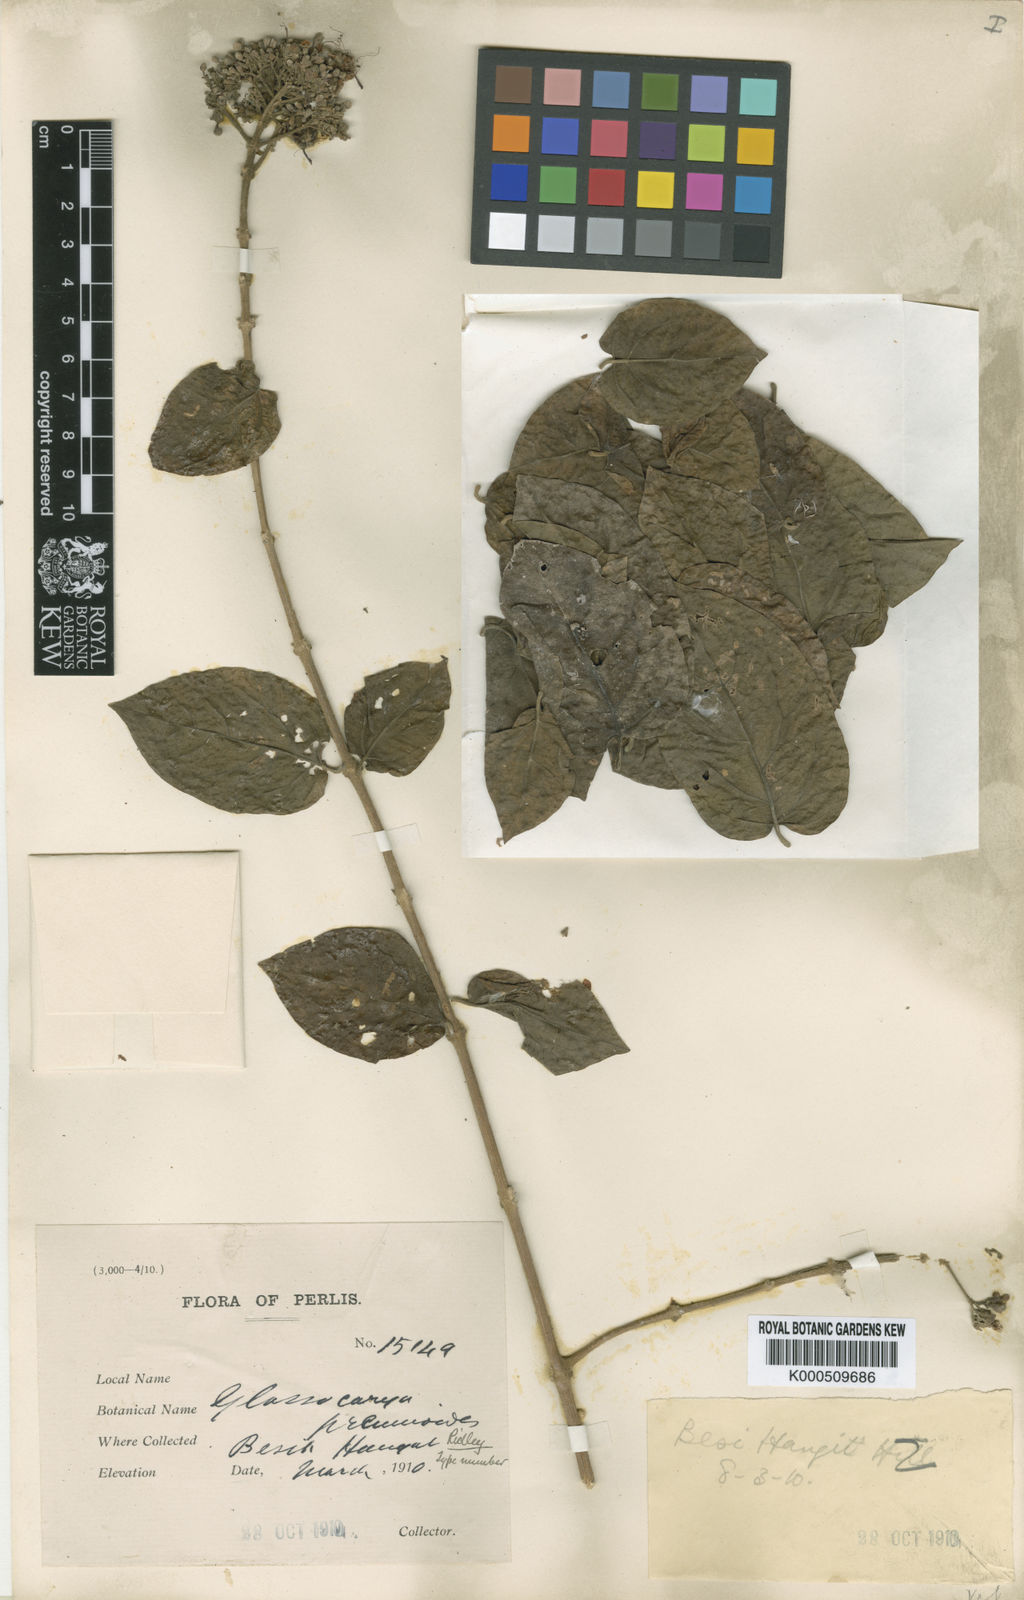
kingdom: Plantae
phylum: Tracheophyta
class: Magnoliopsida
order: Lamiales
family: Lamiaceae
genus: Glossocarya
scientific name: Glossocarya premnoides
